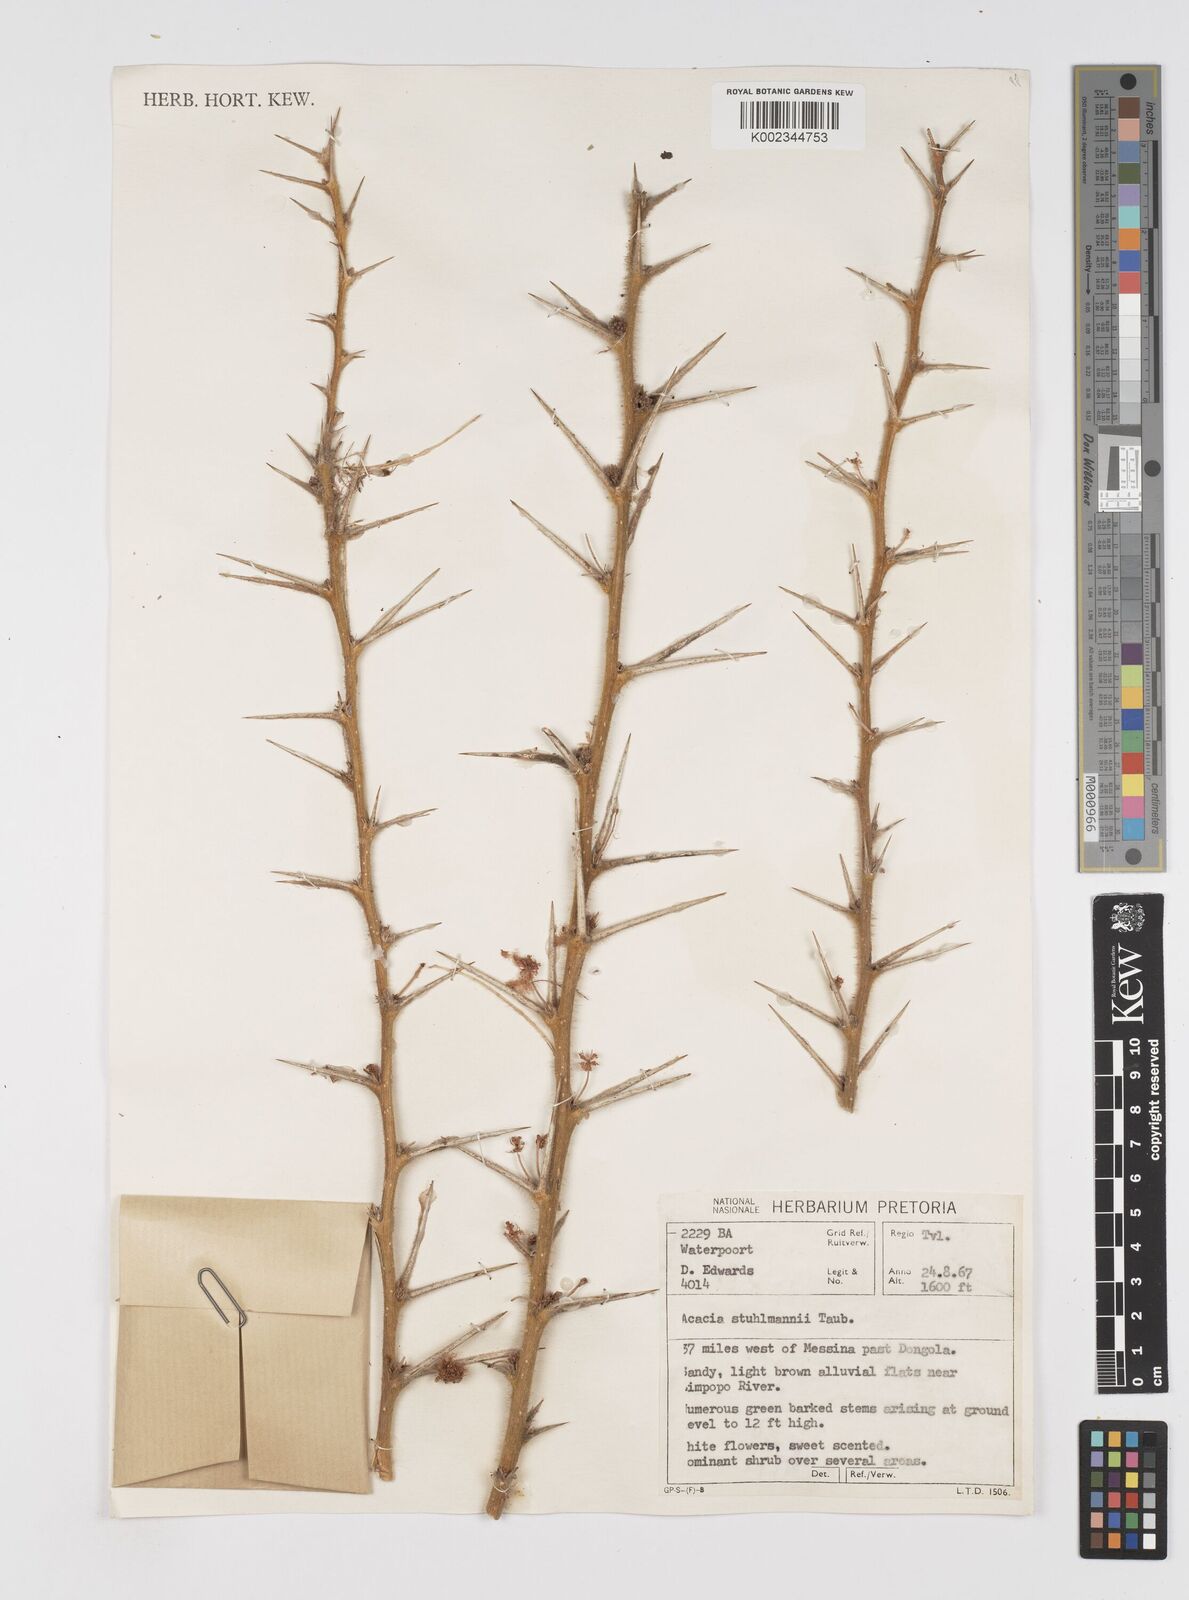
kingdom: Plantae
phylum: Tracheophyta
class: Magnoliopsida
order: Fabales
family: Fabaceae
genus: Vachellia
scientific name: Vachellia stuhlmannii
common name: Vlei thorn
